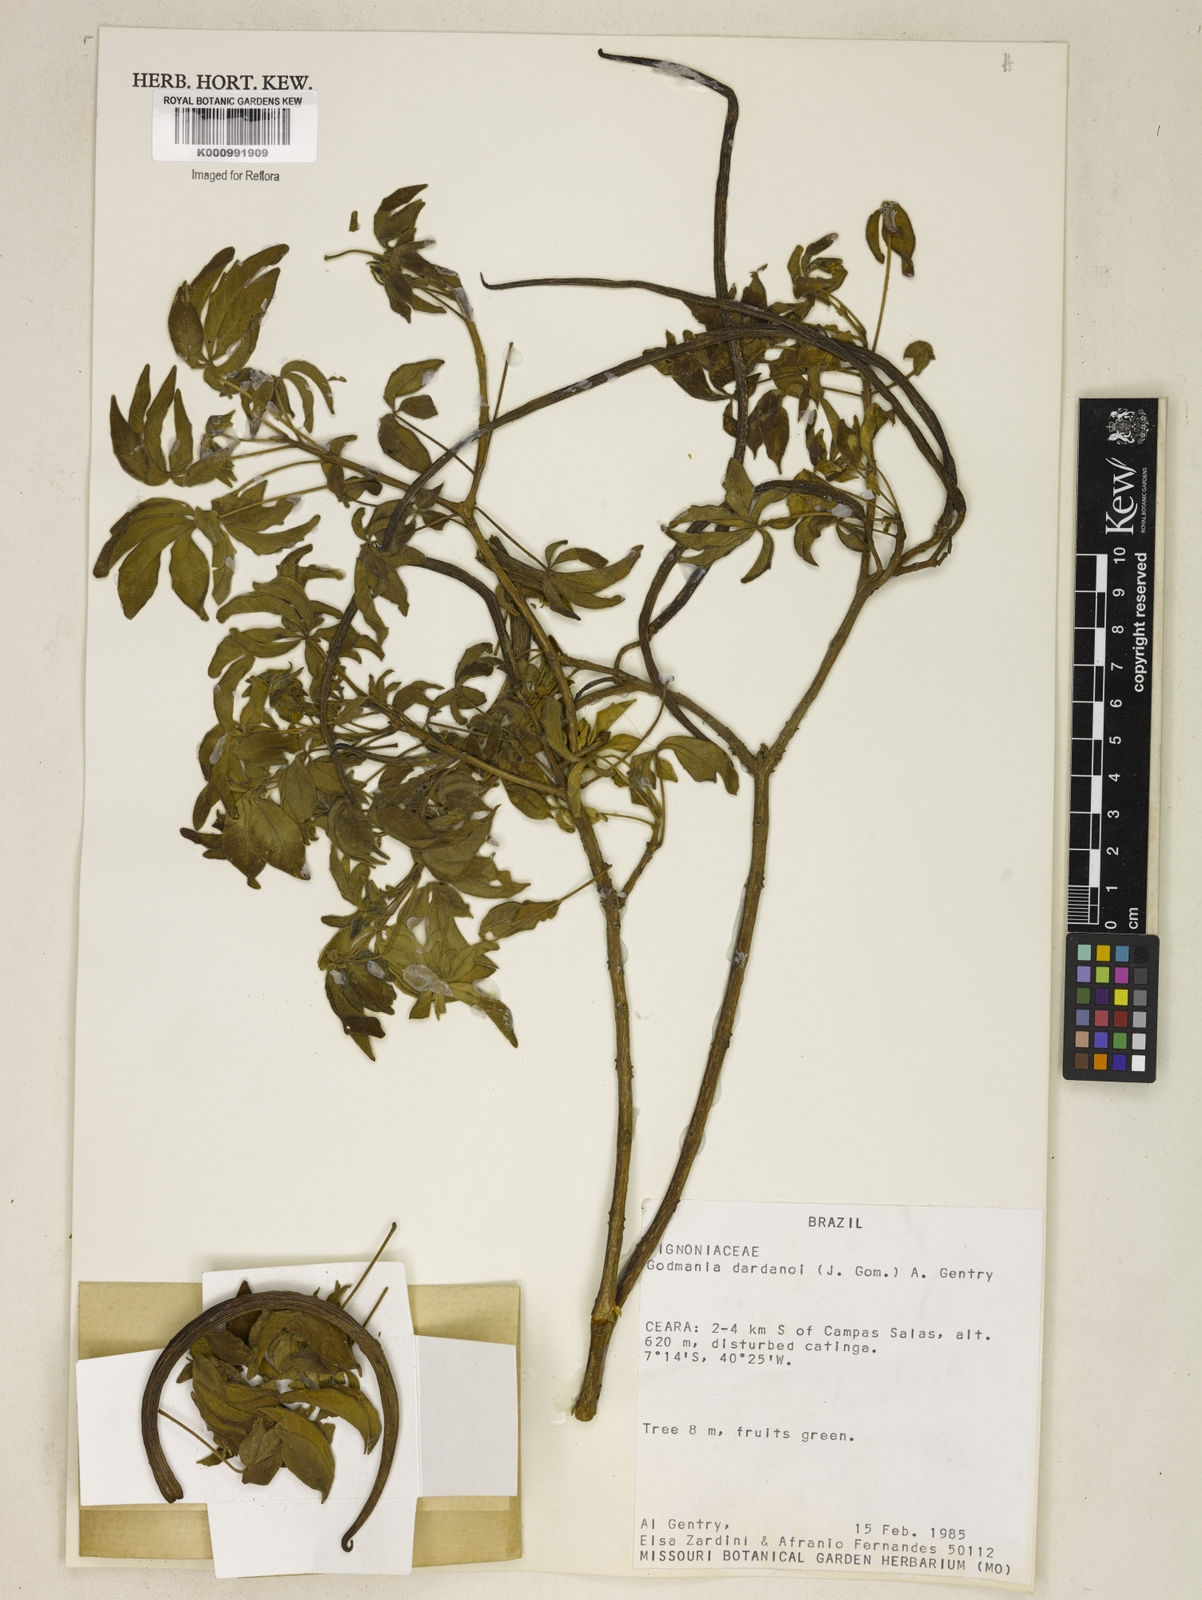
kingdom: Plantae
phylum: Tracheophyta
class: Magnoliopsida
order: Lamiales
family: Bignoniaceae
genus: Godmania
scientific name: Godmania dardanoi
